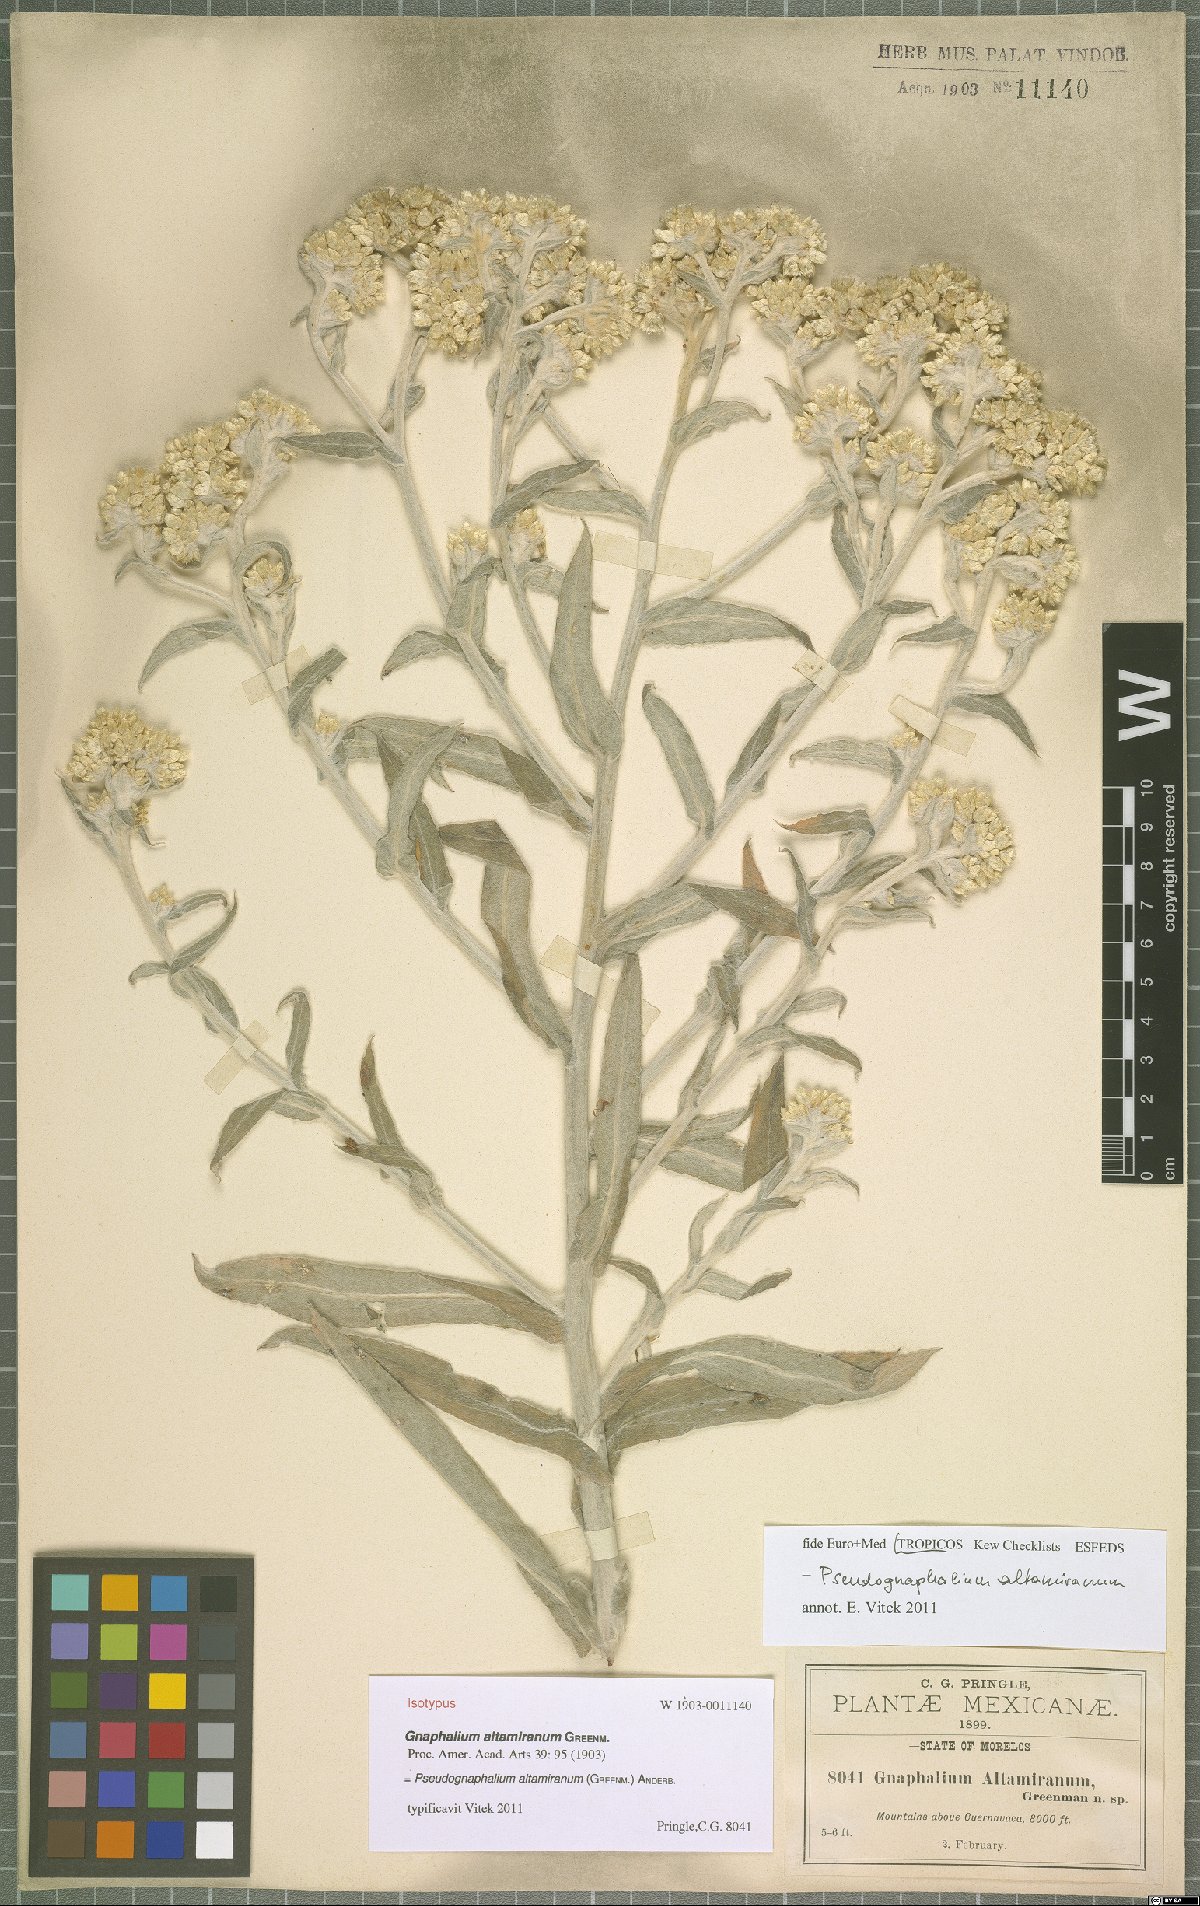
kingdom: Plantae
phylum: Tracheophyta
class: Magnoliopsida
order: Asterales
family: Asteraceae
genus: Pseudognaphalium
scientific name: Pseudognaphalium altamiranum
